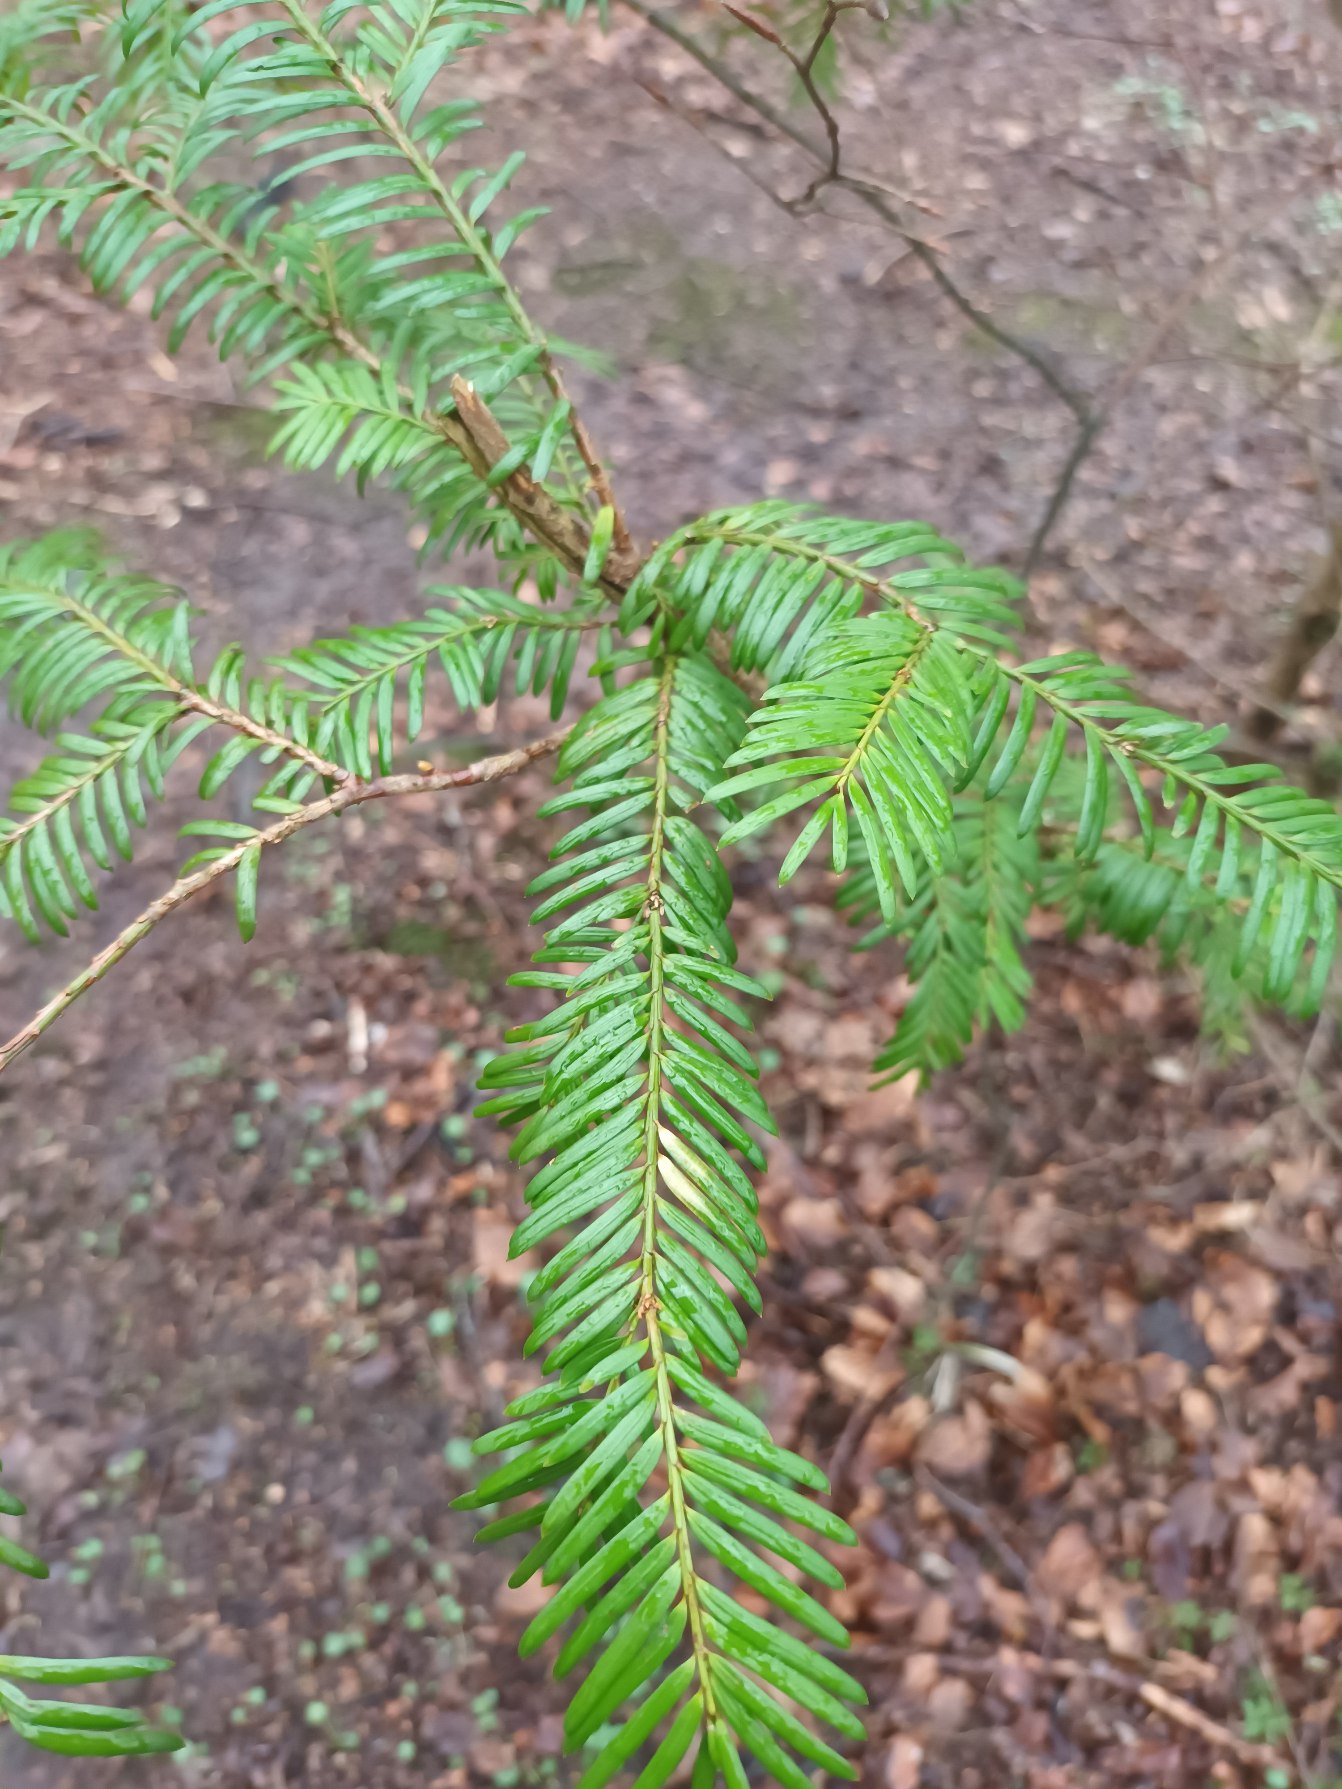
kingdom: Plantae
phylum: Tracheophyta
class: Pinopsida
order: Pinales
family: Taxaceae
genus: Taxus
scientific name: Taxus baccata
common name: Almindelig taks
